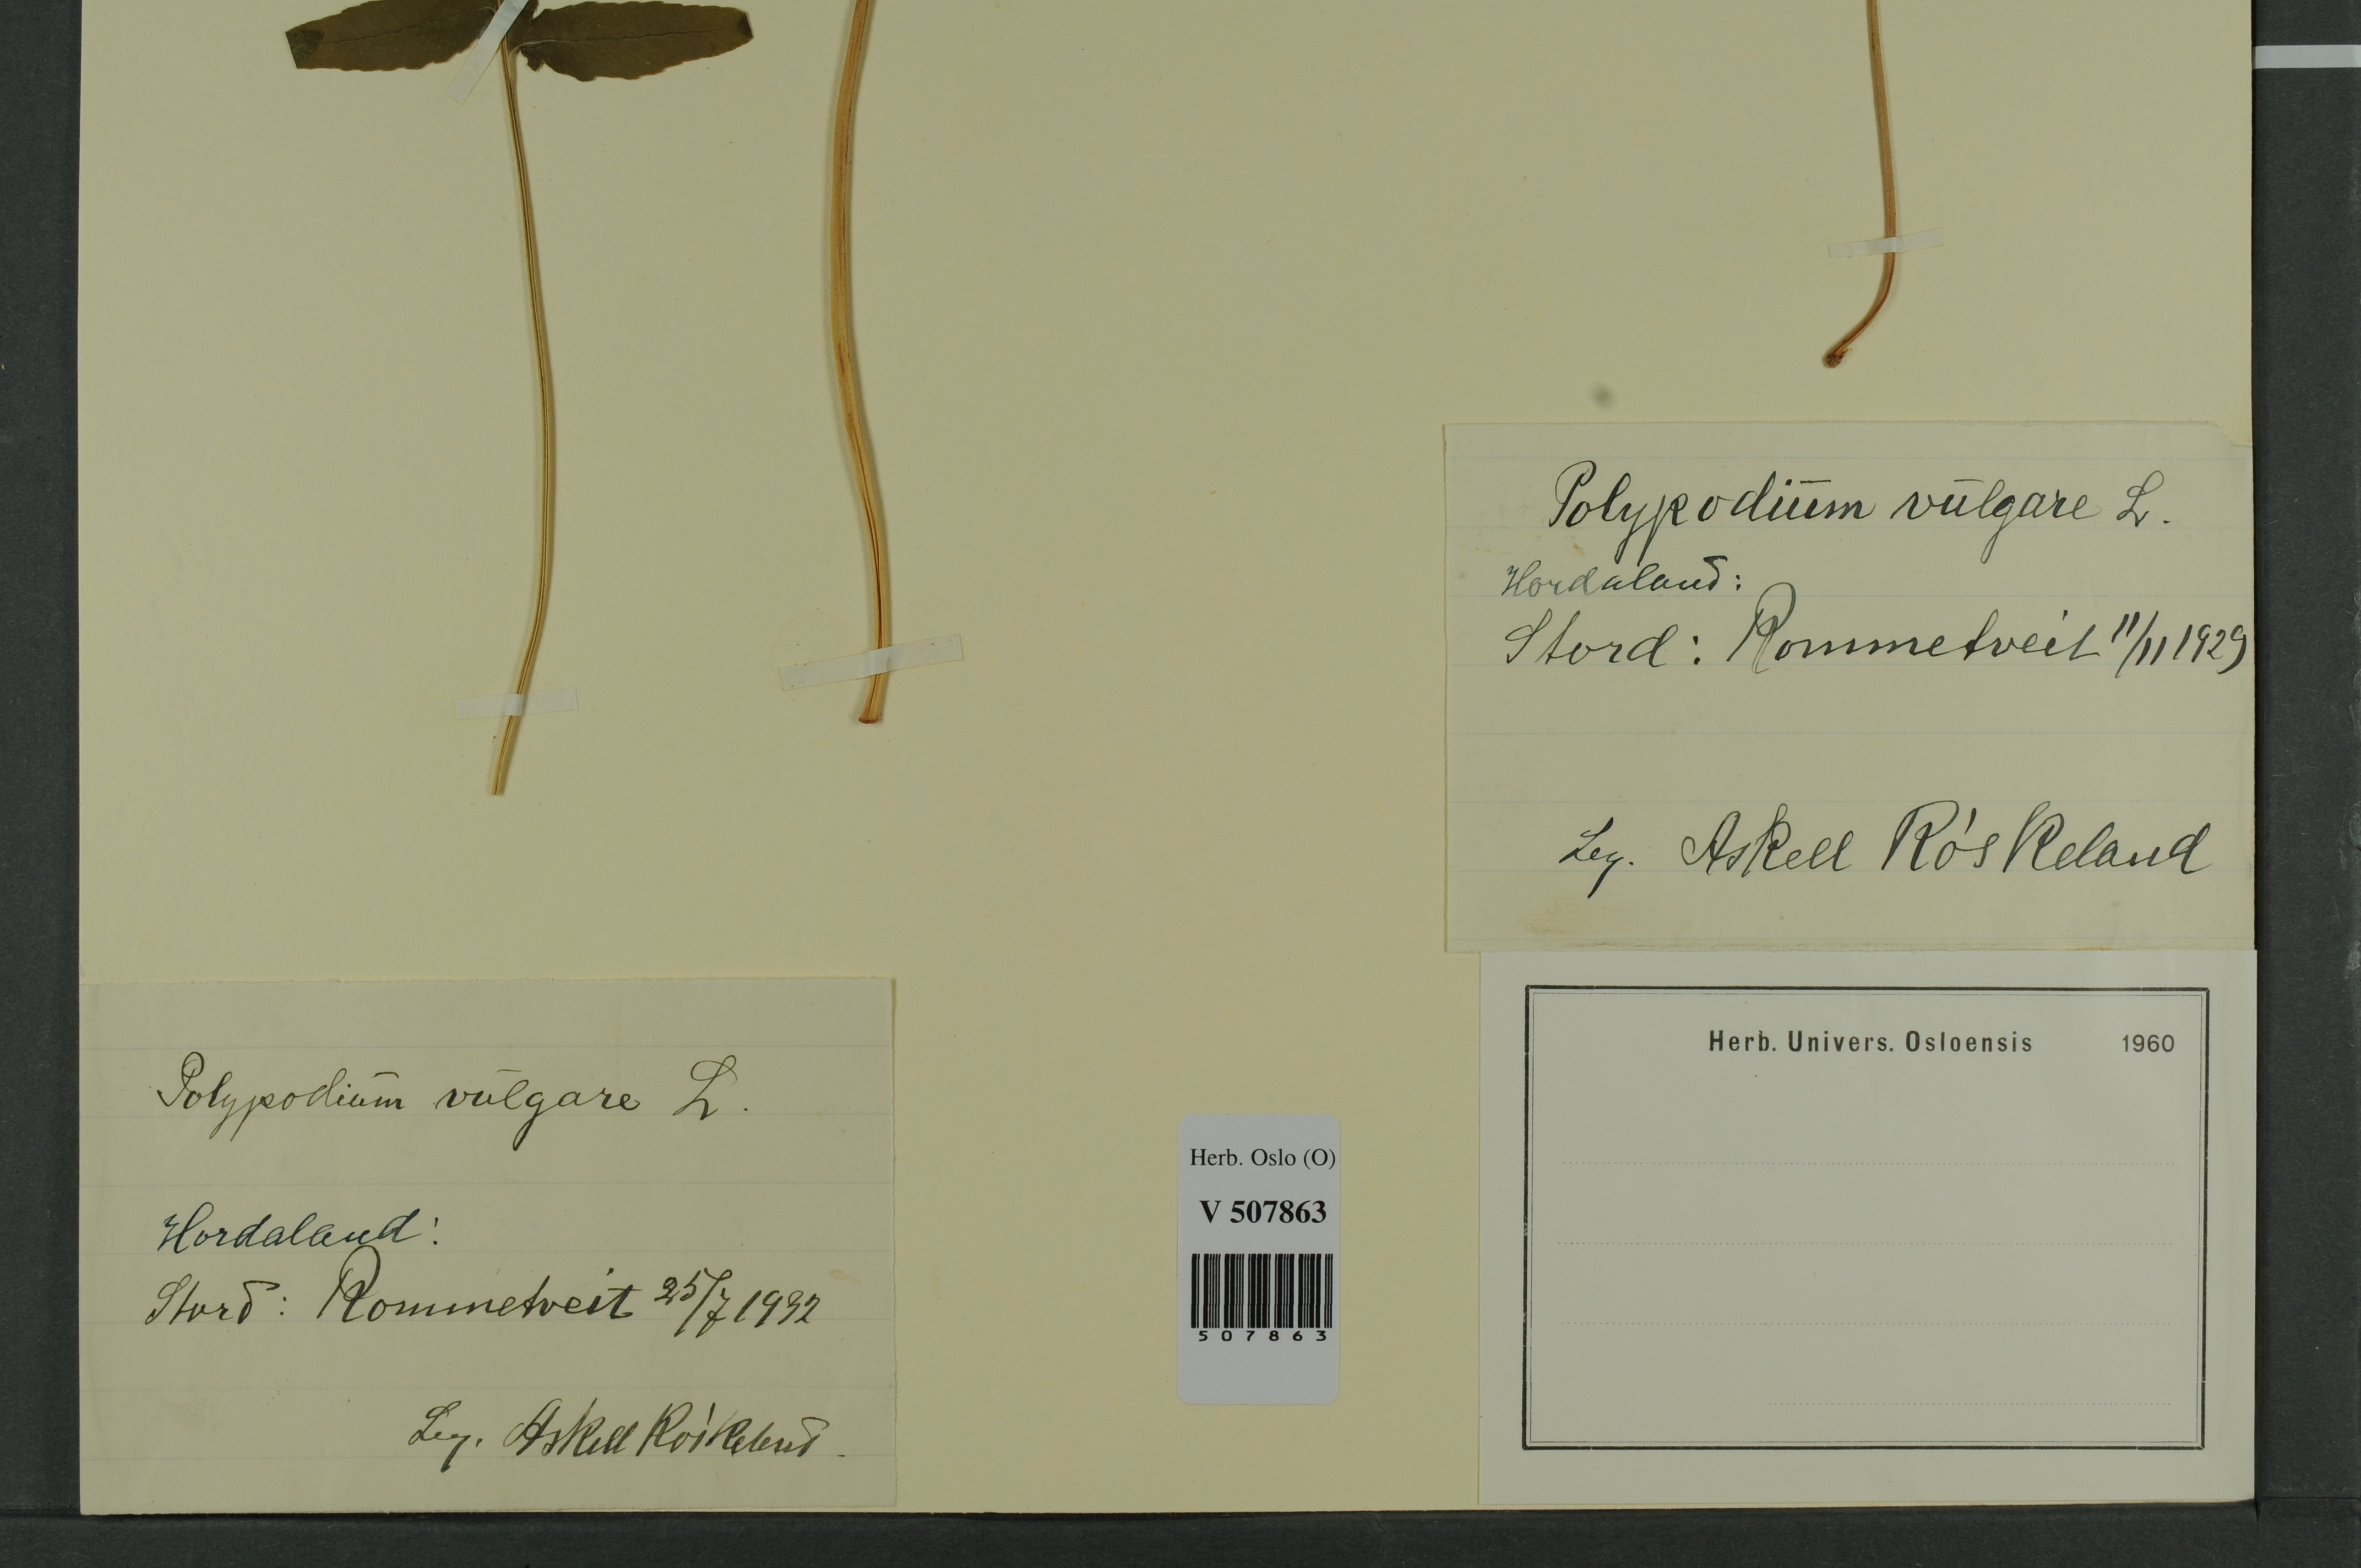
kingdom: Plantae
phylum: Tracheophyta
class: Polypodiopsida
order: Polypodiales
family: Polypodiaceae
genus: Polypodium
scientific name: Polypodium vulgare
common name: Common polypody
